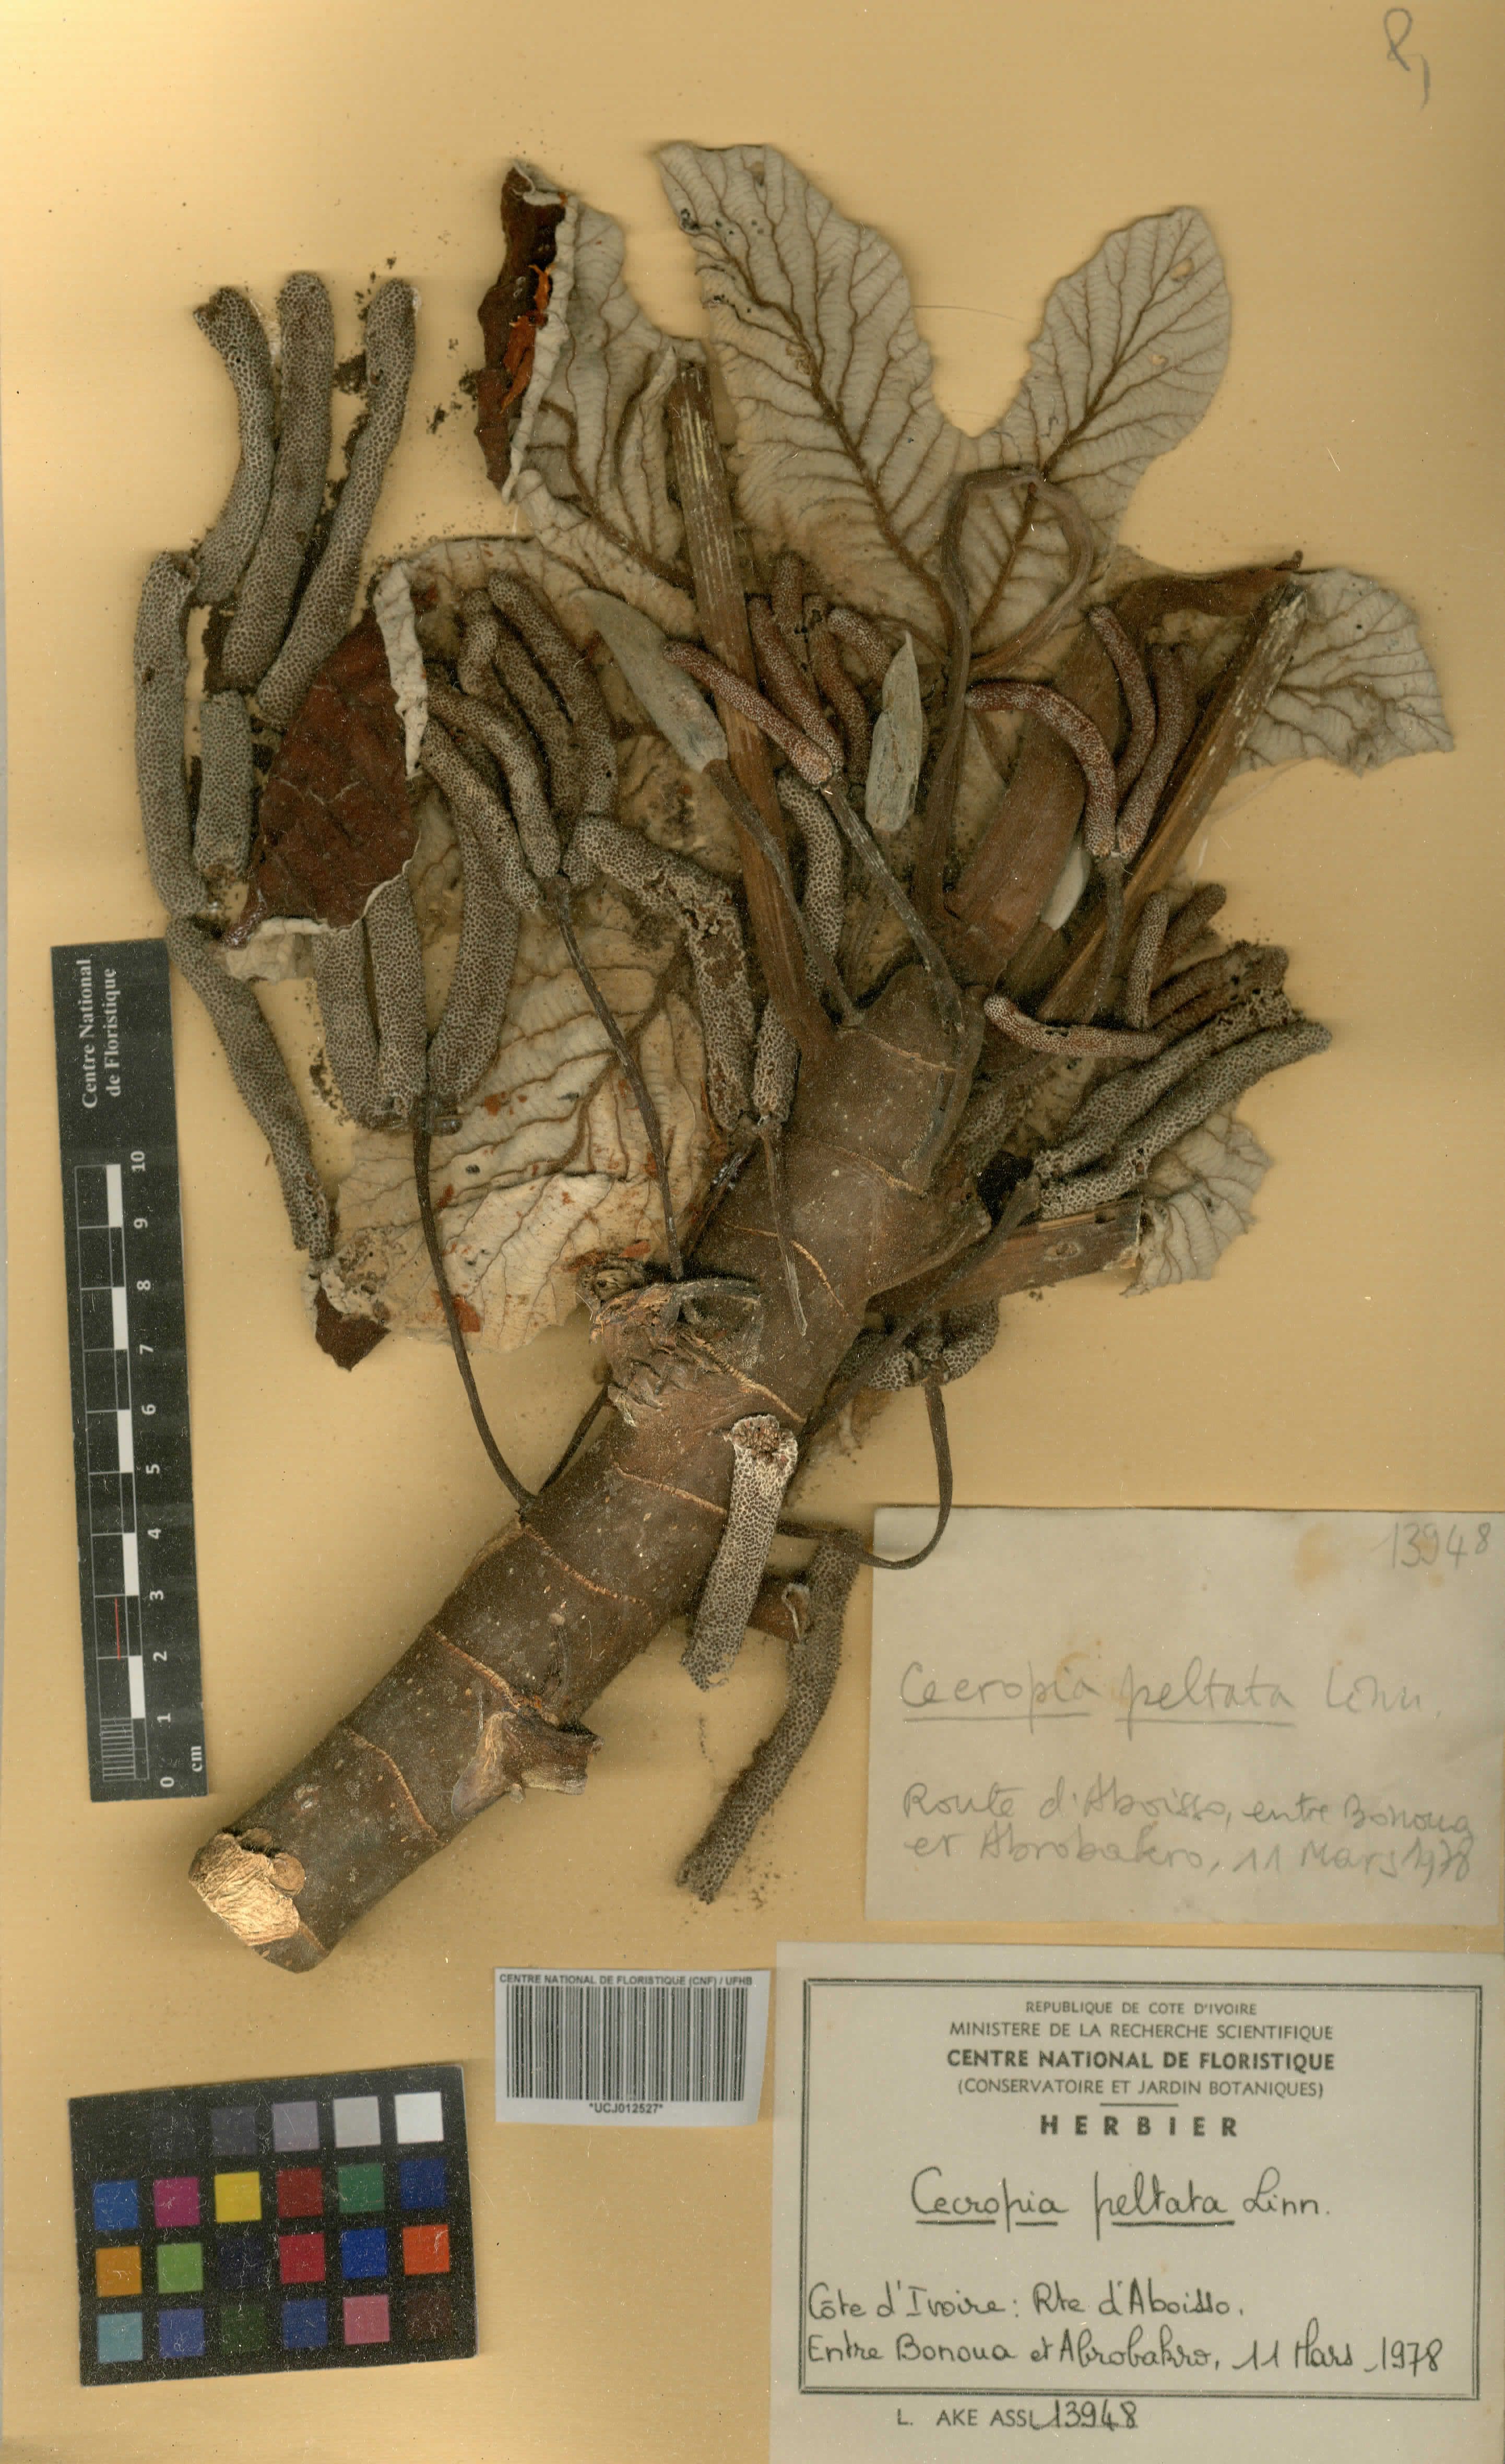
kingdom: Plantae
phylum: Tracheophyta
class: Magnoliopsida
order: Rosales
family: Urticaceae
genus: Cecropia
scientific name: Cecropia peltata
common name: Trumpet-tree
